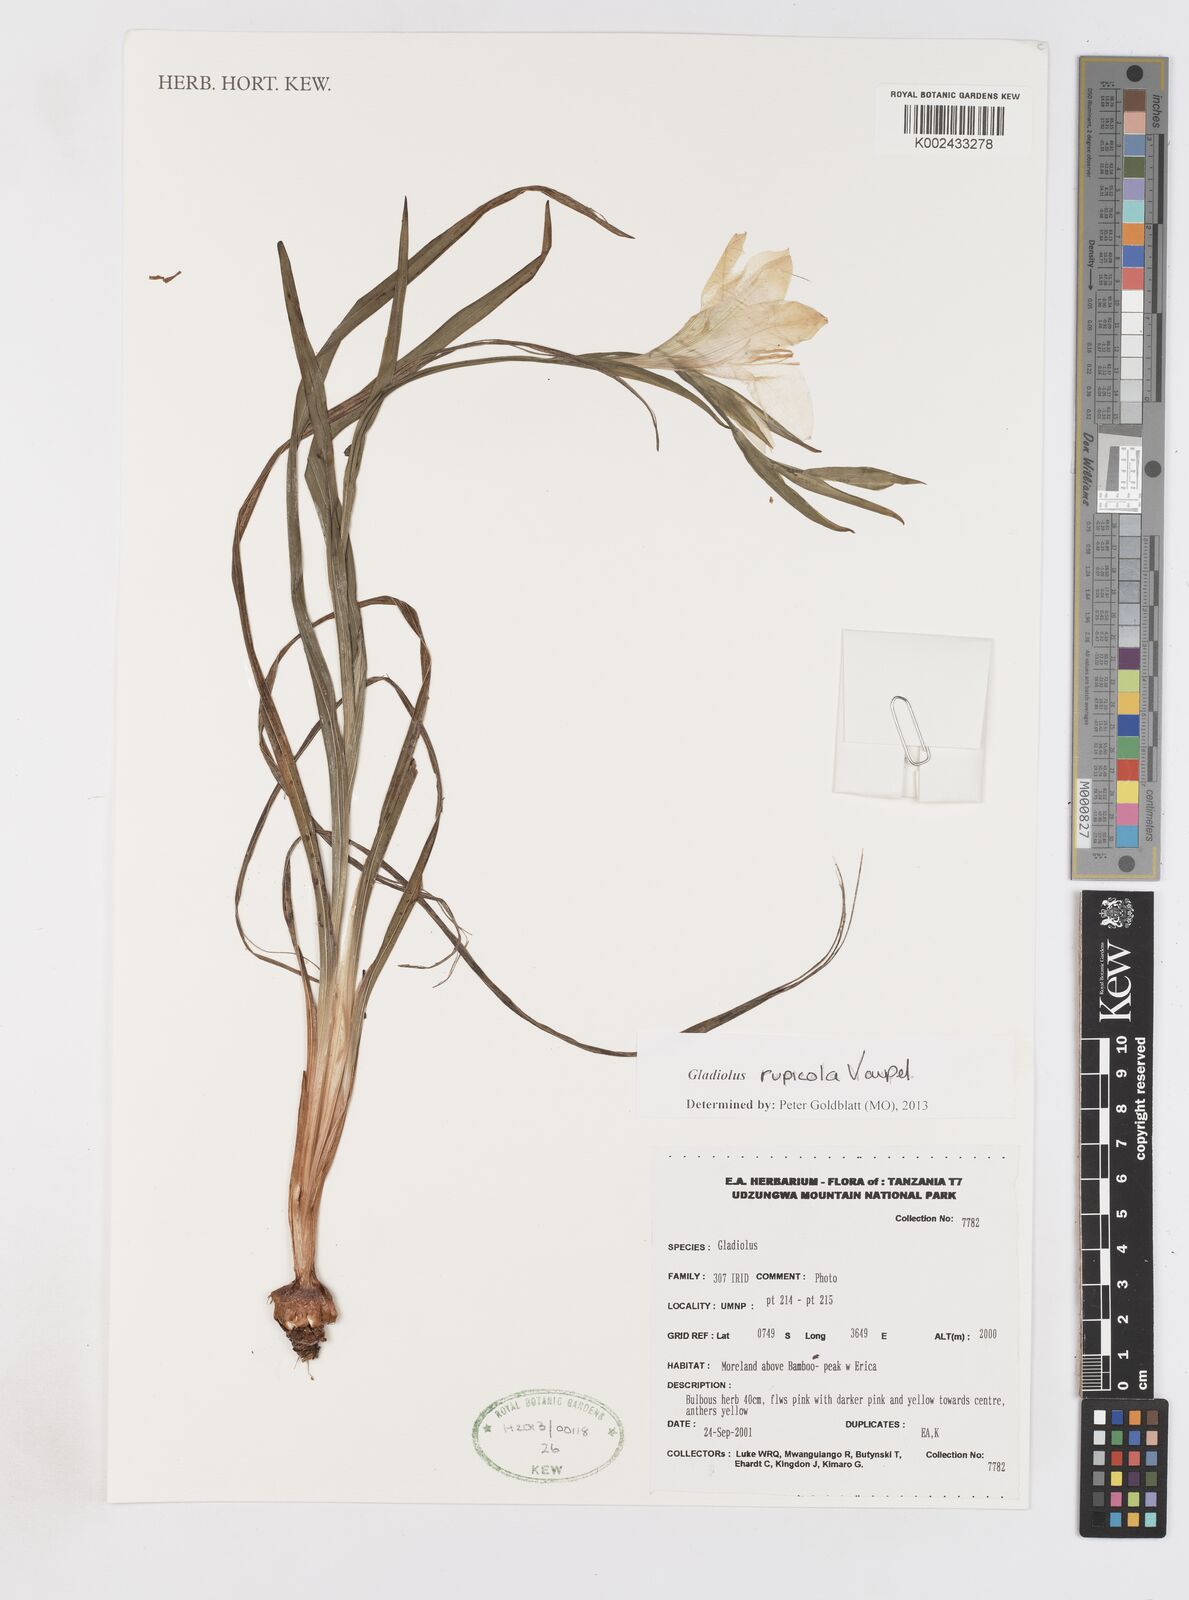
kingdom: Plantae
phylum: Tracheophyta
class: Liliopsida
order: Asparagales
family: Iridaceae
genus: Gladiolus
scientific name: Gladiolus rupicola
